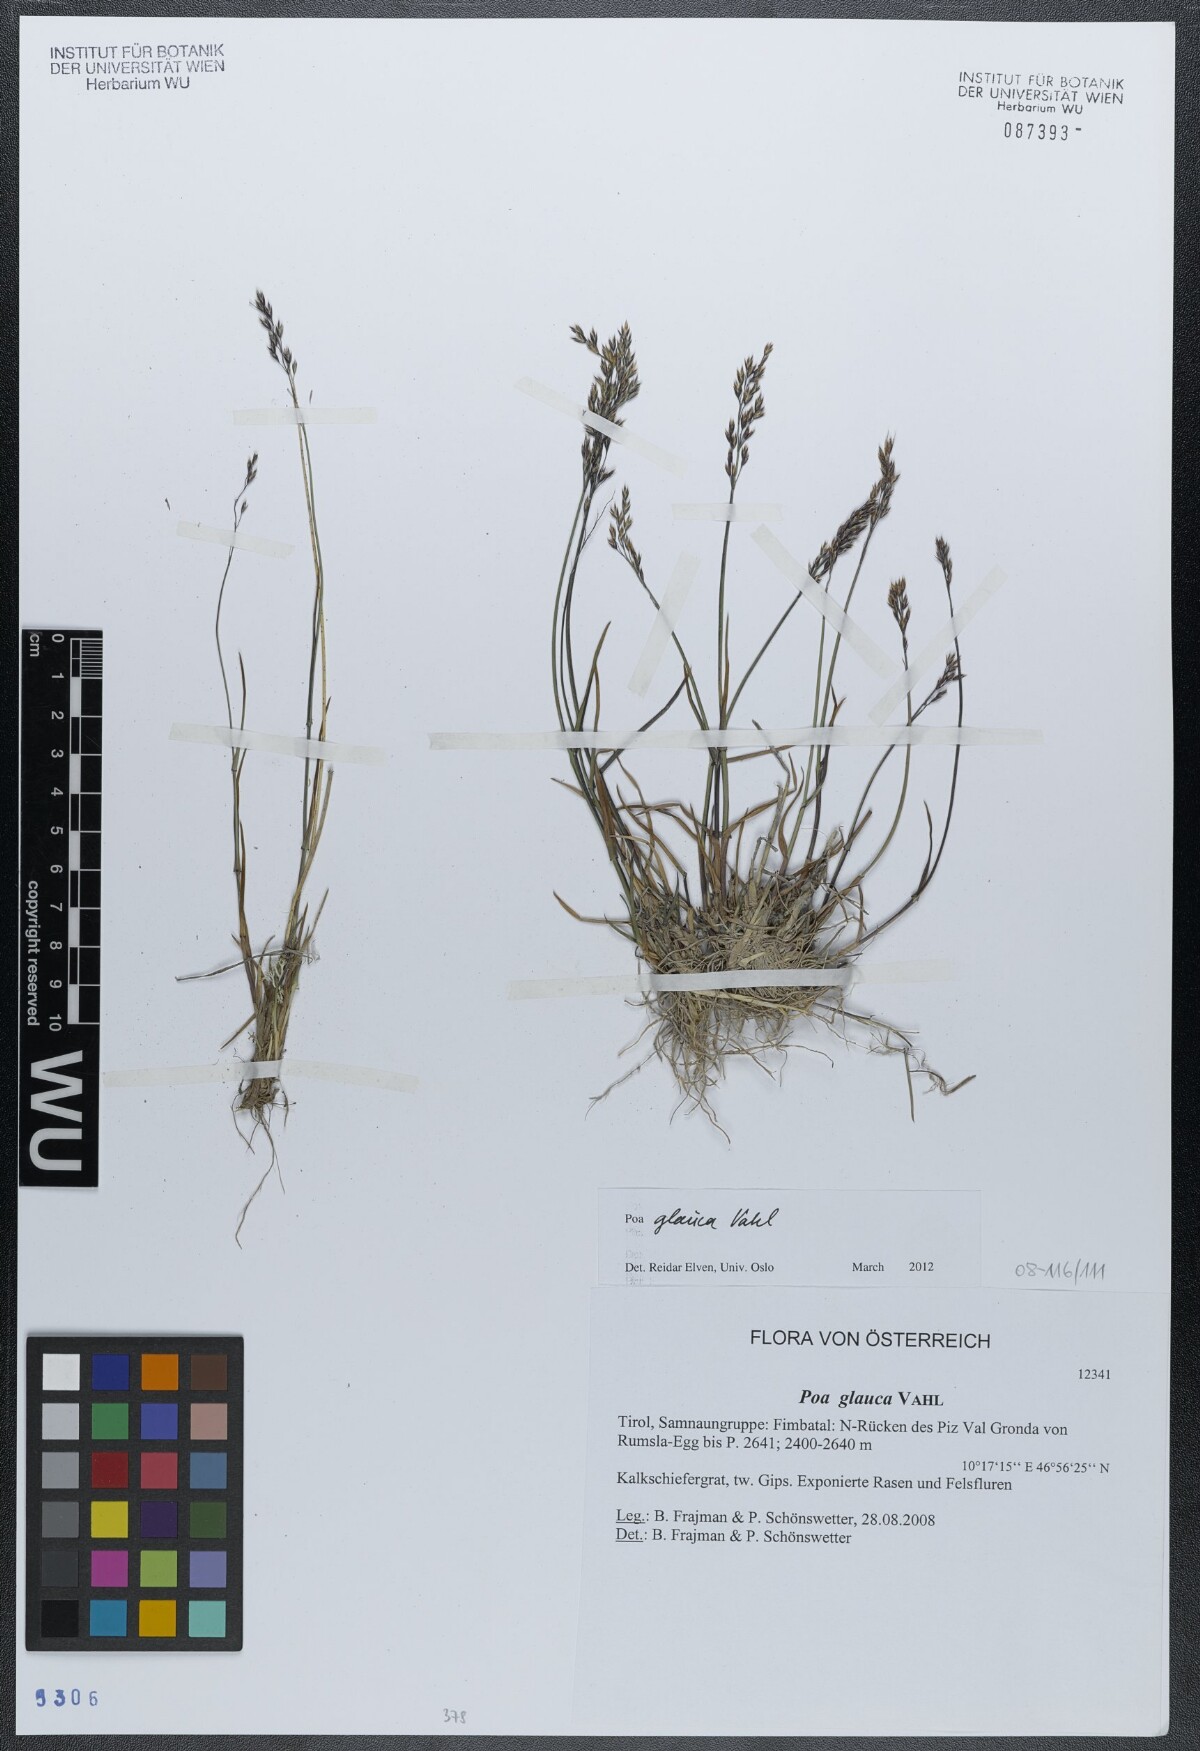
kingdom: Plantae
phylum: Tracheophyta
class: Liliopsida
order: Poales
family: Poaceae
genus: Poa
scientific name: Poa glauca
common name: Glaucous bluegrass
